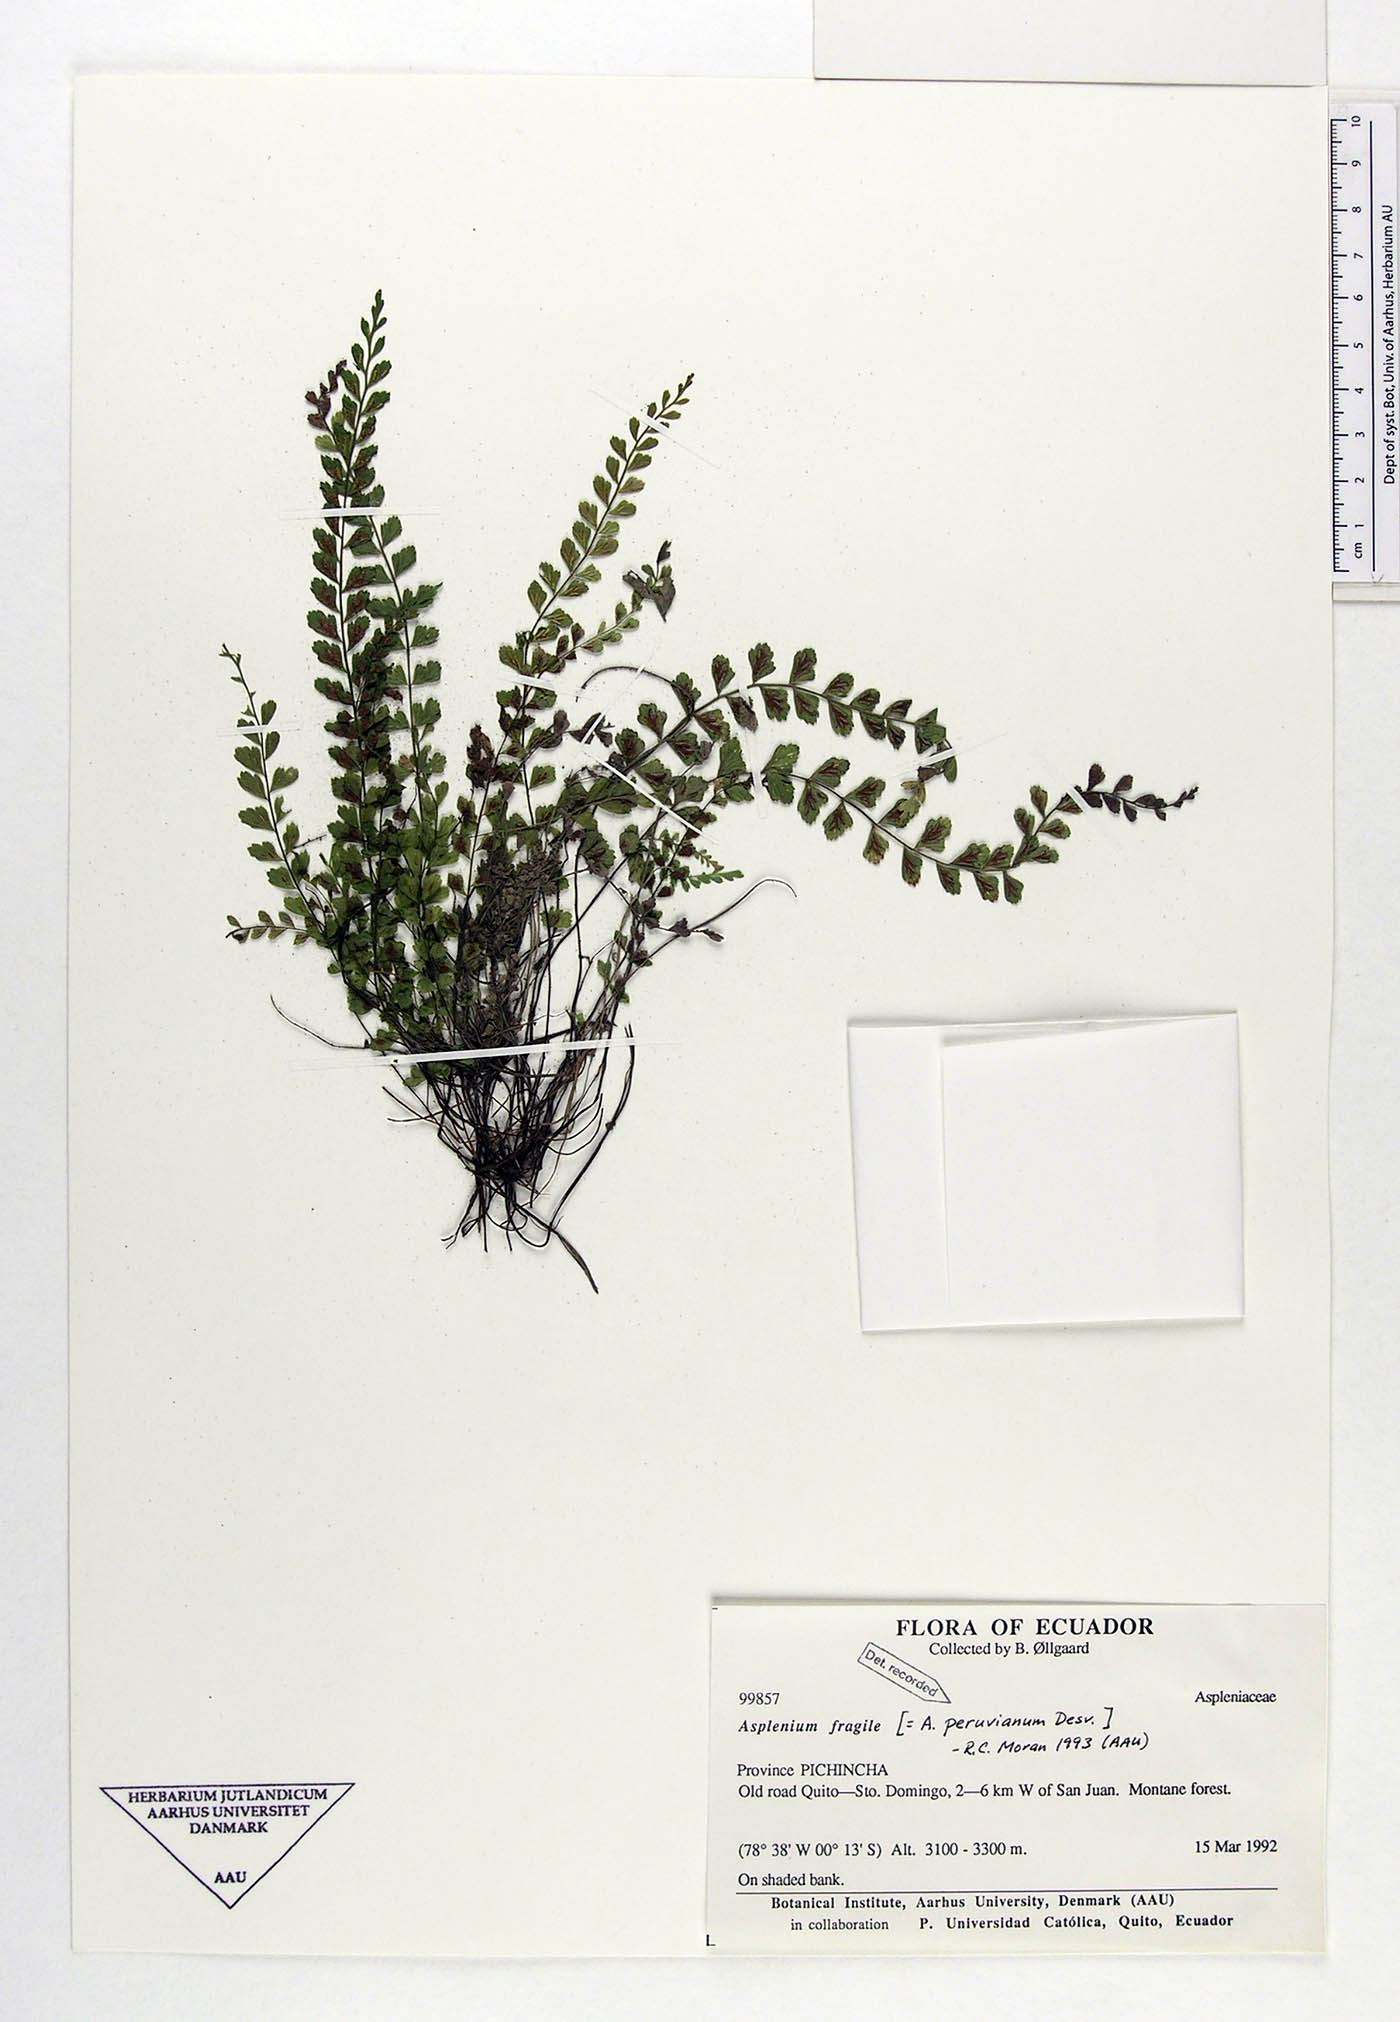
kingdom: Plantae
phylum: Tracheophyta
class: Polypodiopsida
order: Polypodiales
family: Aspleniaceae
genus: Asplenium
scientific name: Asplenium peruvianum
